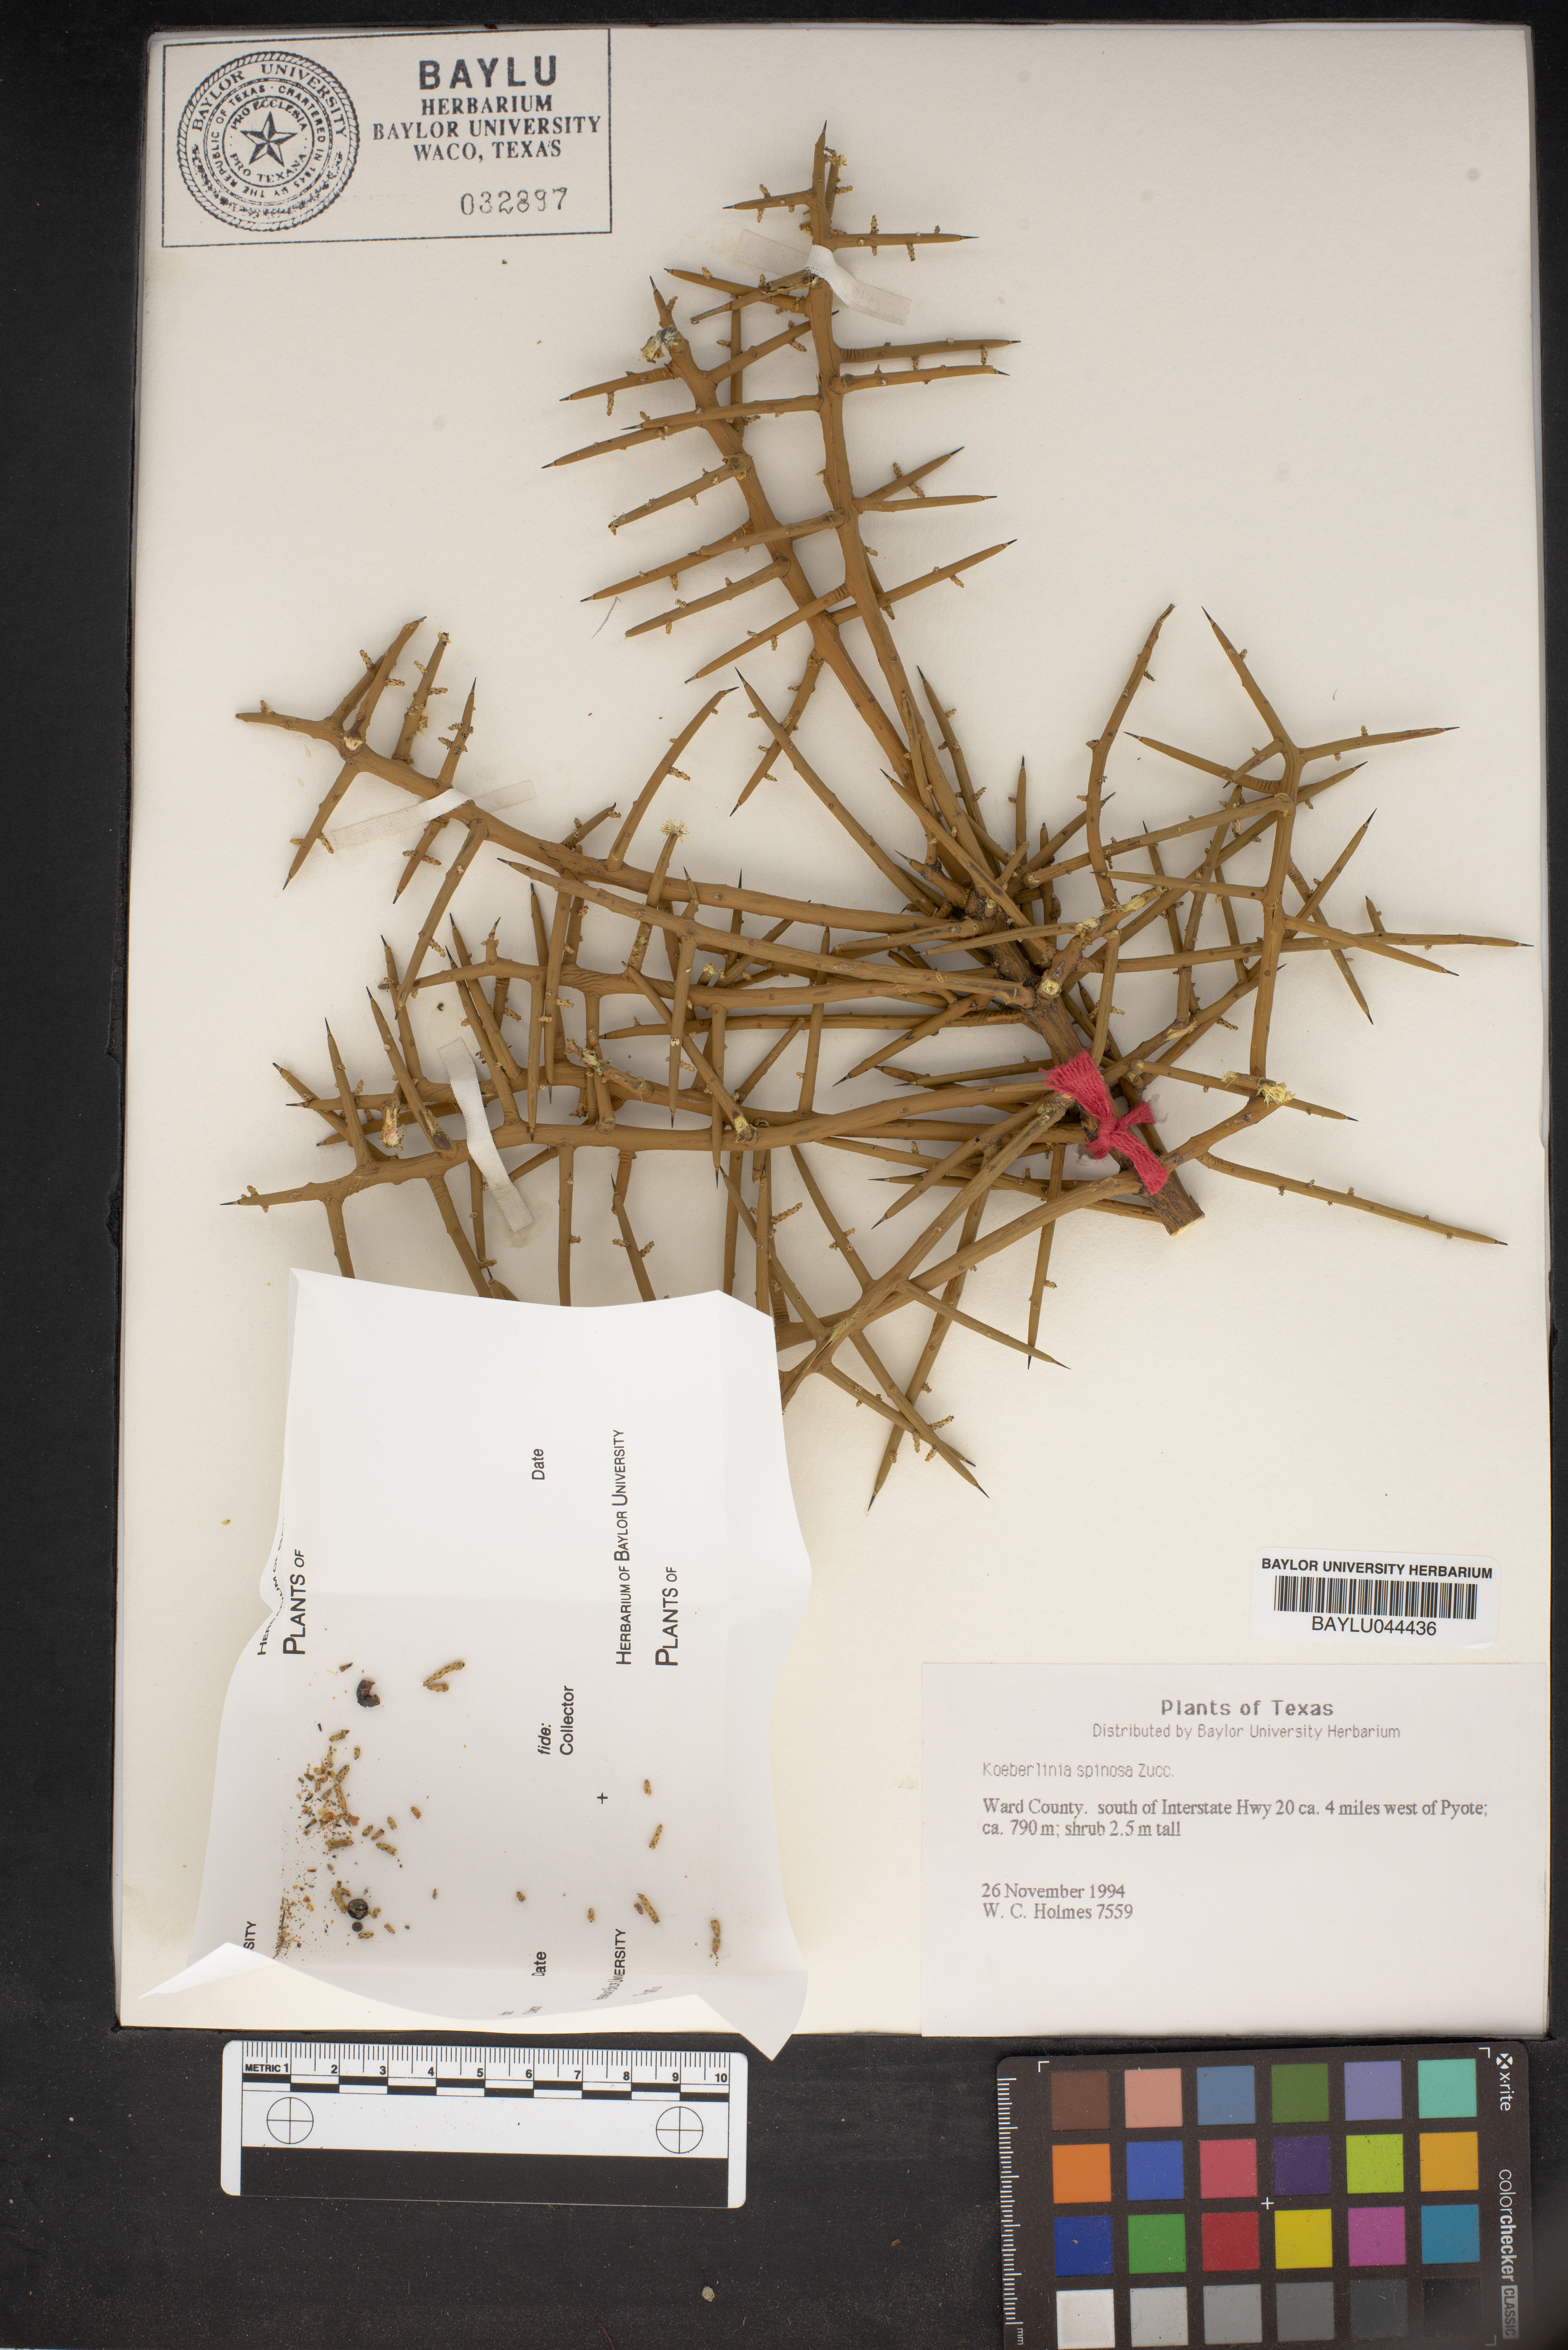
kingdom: Plantae
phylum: Tracheophyta
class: Magnoliopsida
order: Brassicales
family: Koeberliniaceae
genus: Koeberlinia
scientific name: Koeberlinia spinosa
